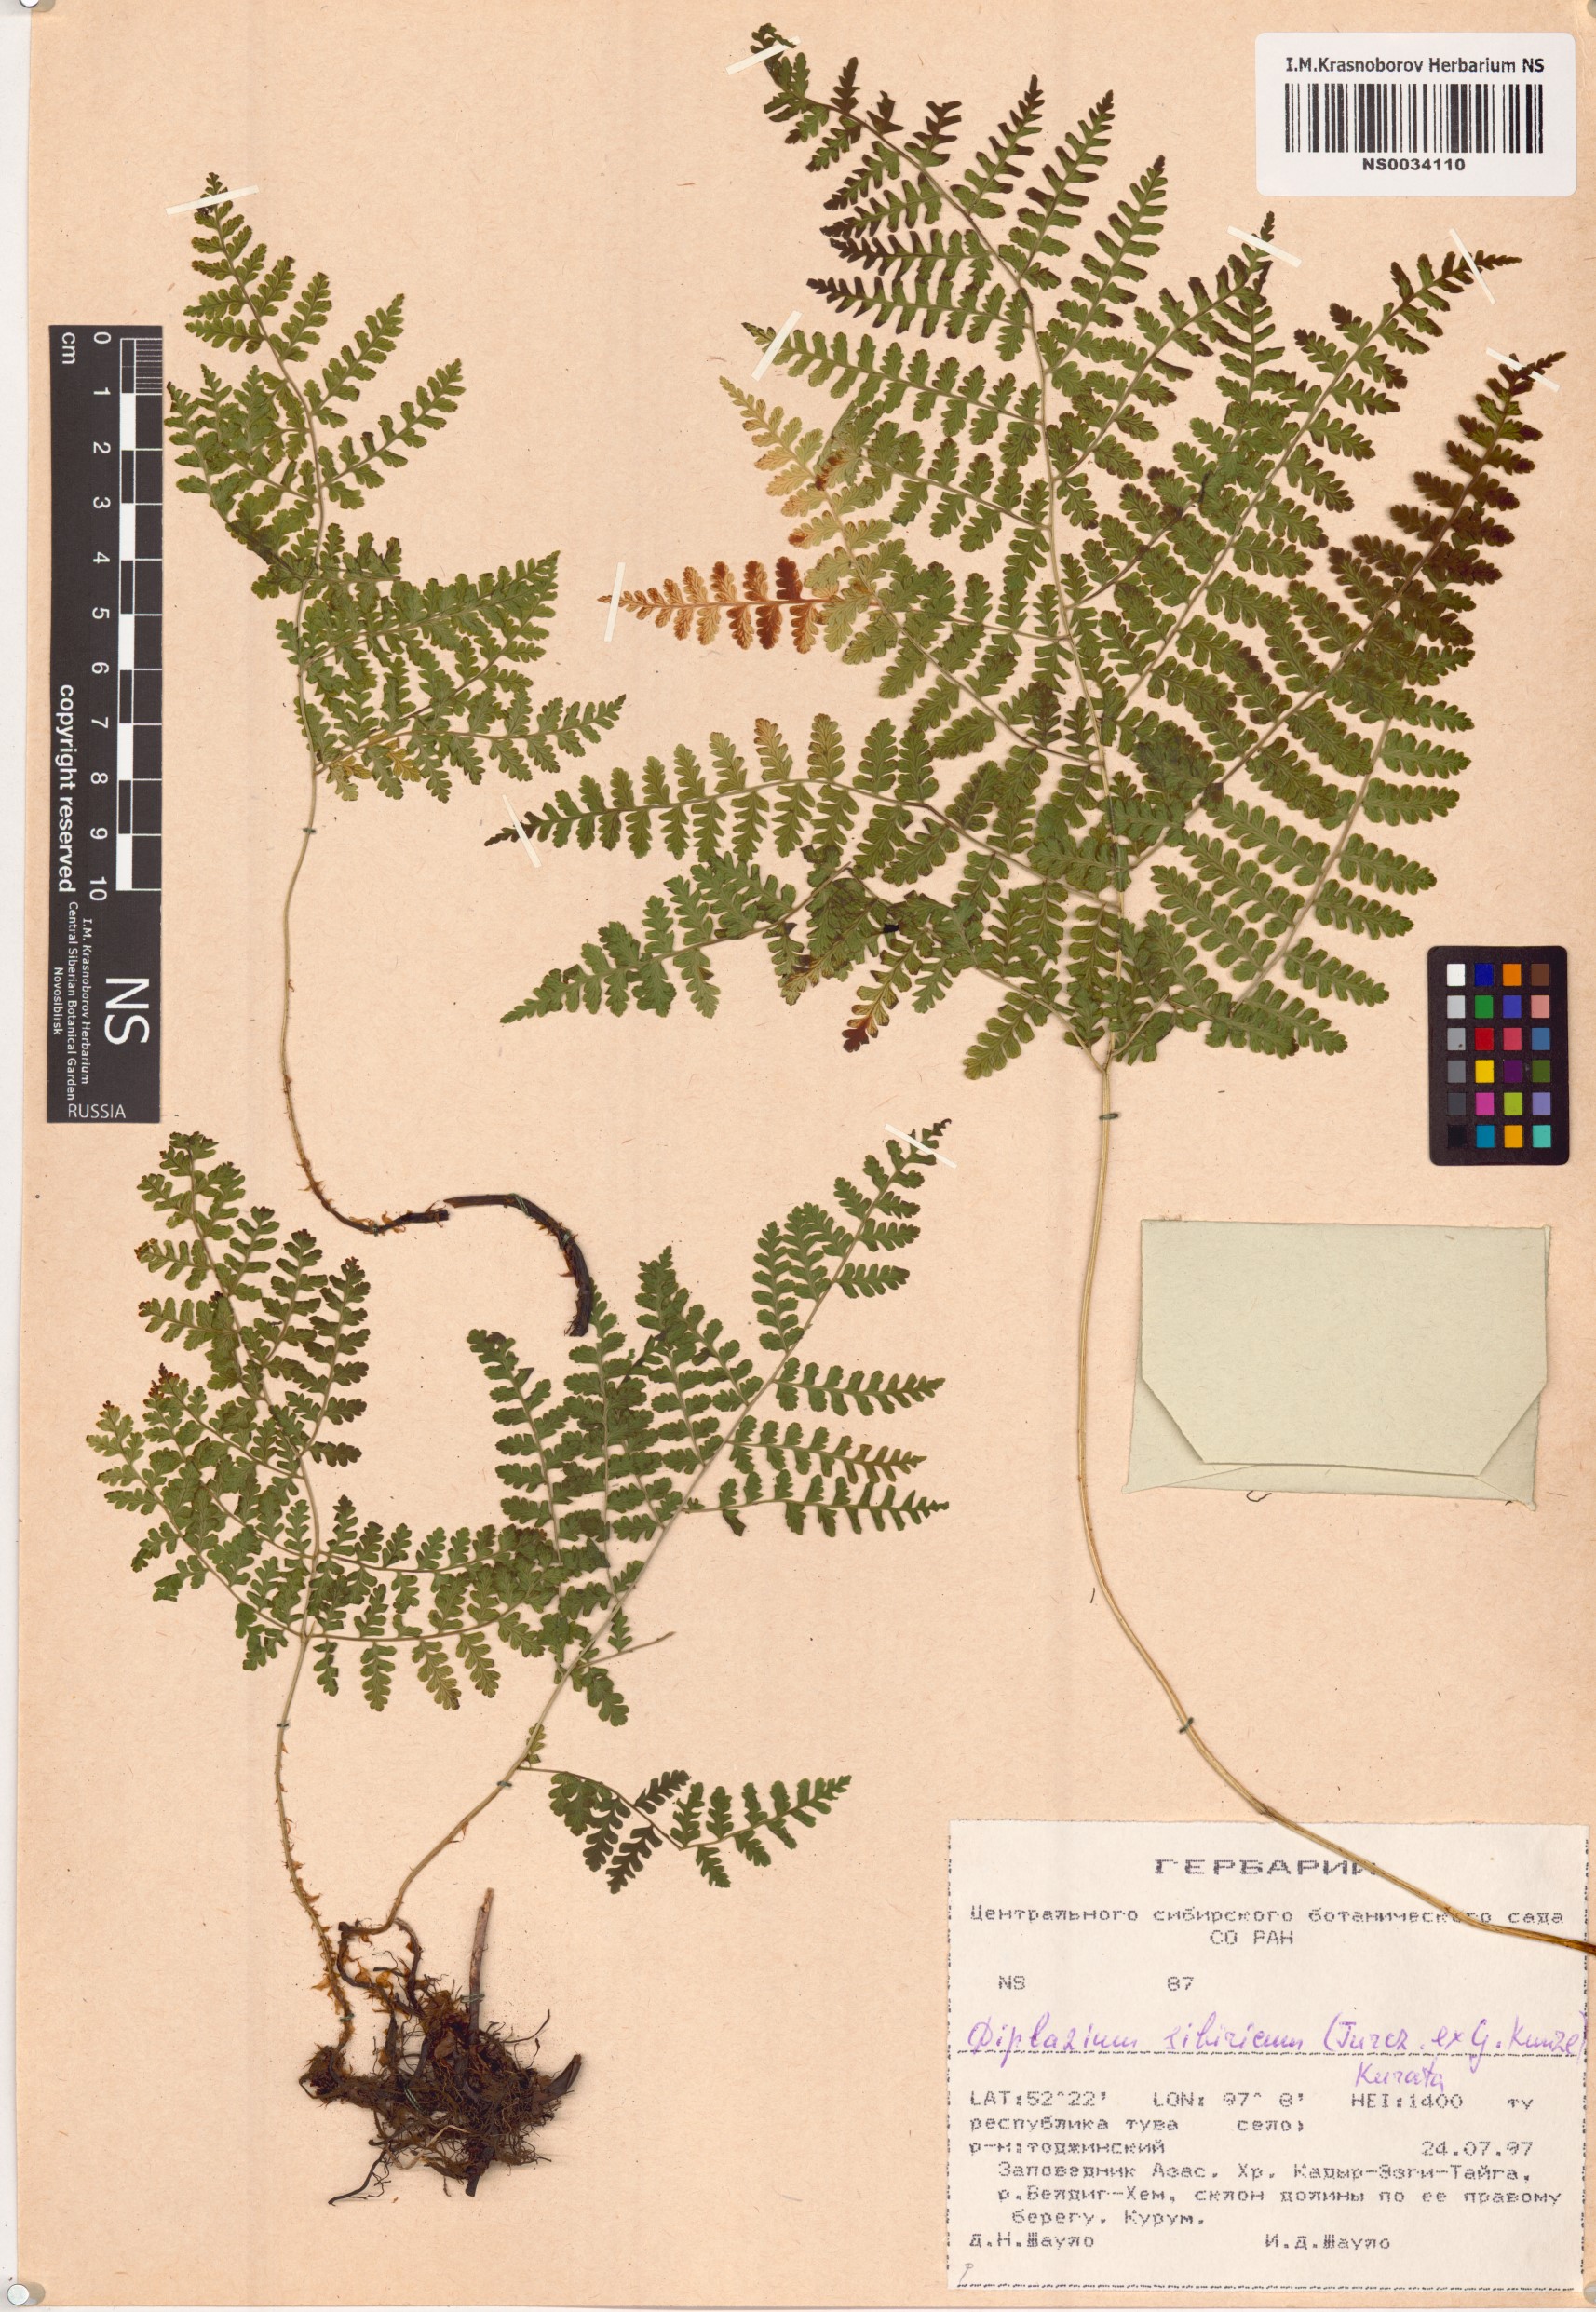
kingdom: Plantae
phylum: Tracheophyta
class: Polypodiopsida
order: Polypodiales
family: Athyriaceae
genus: Diplazium
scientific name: Diplazium sibiricum
